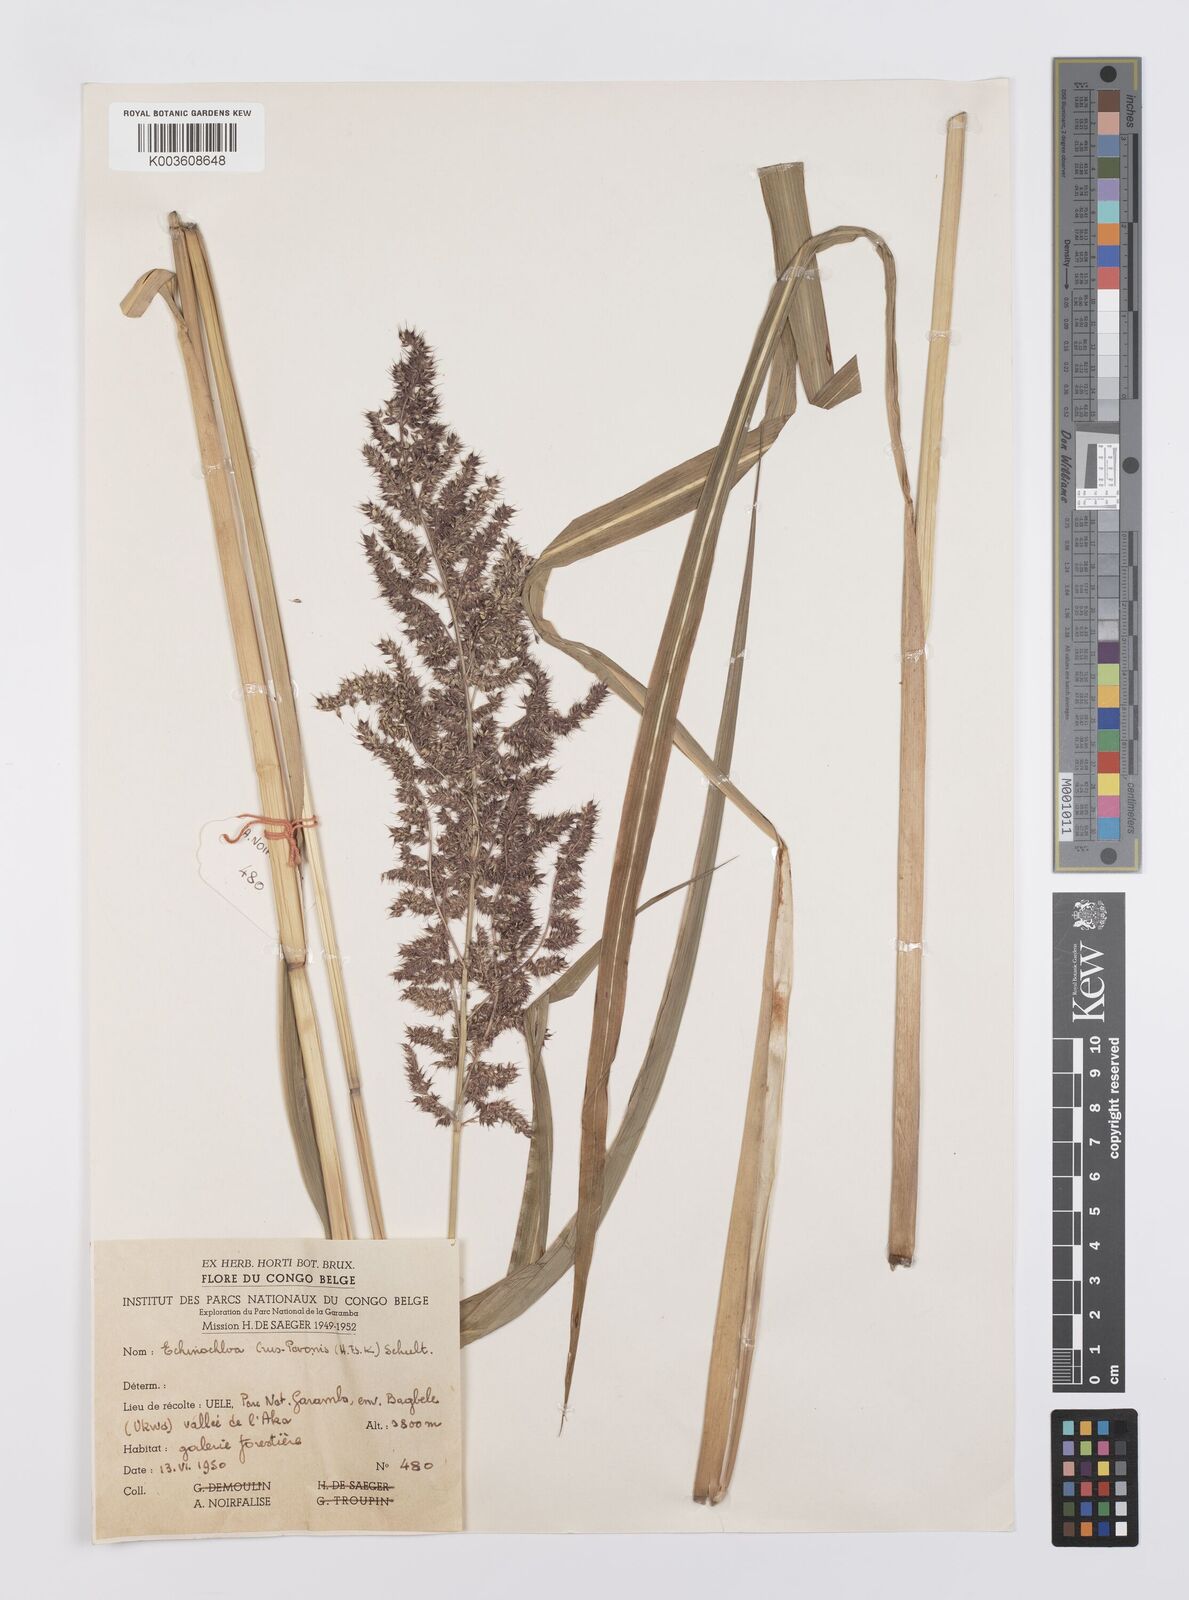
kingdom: Plantae
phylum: Tracheophyta
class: Liliopsida
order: Poales
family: Poaceae
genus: Echinochloa
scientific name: Echinochloa crus-pavonis
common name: Gulf cockspur grass
